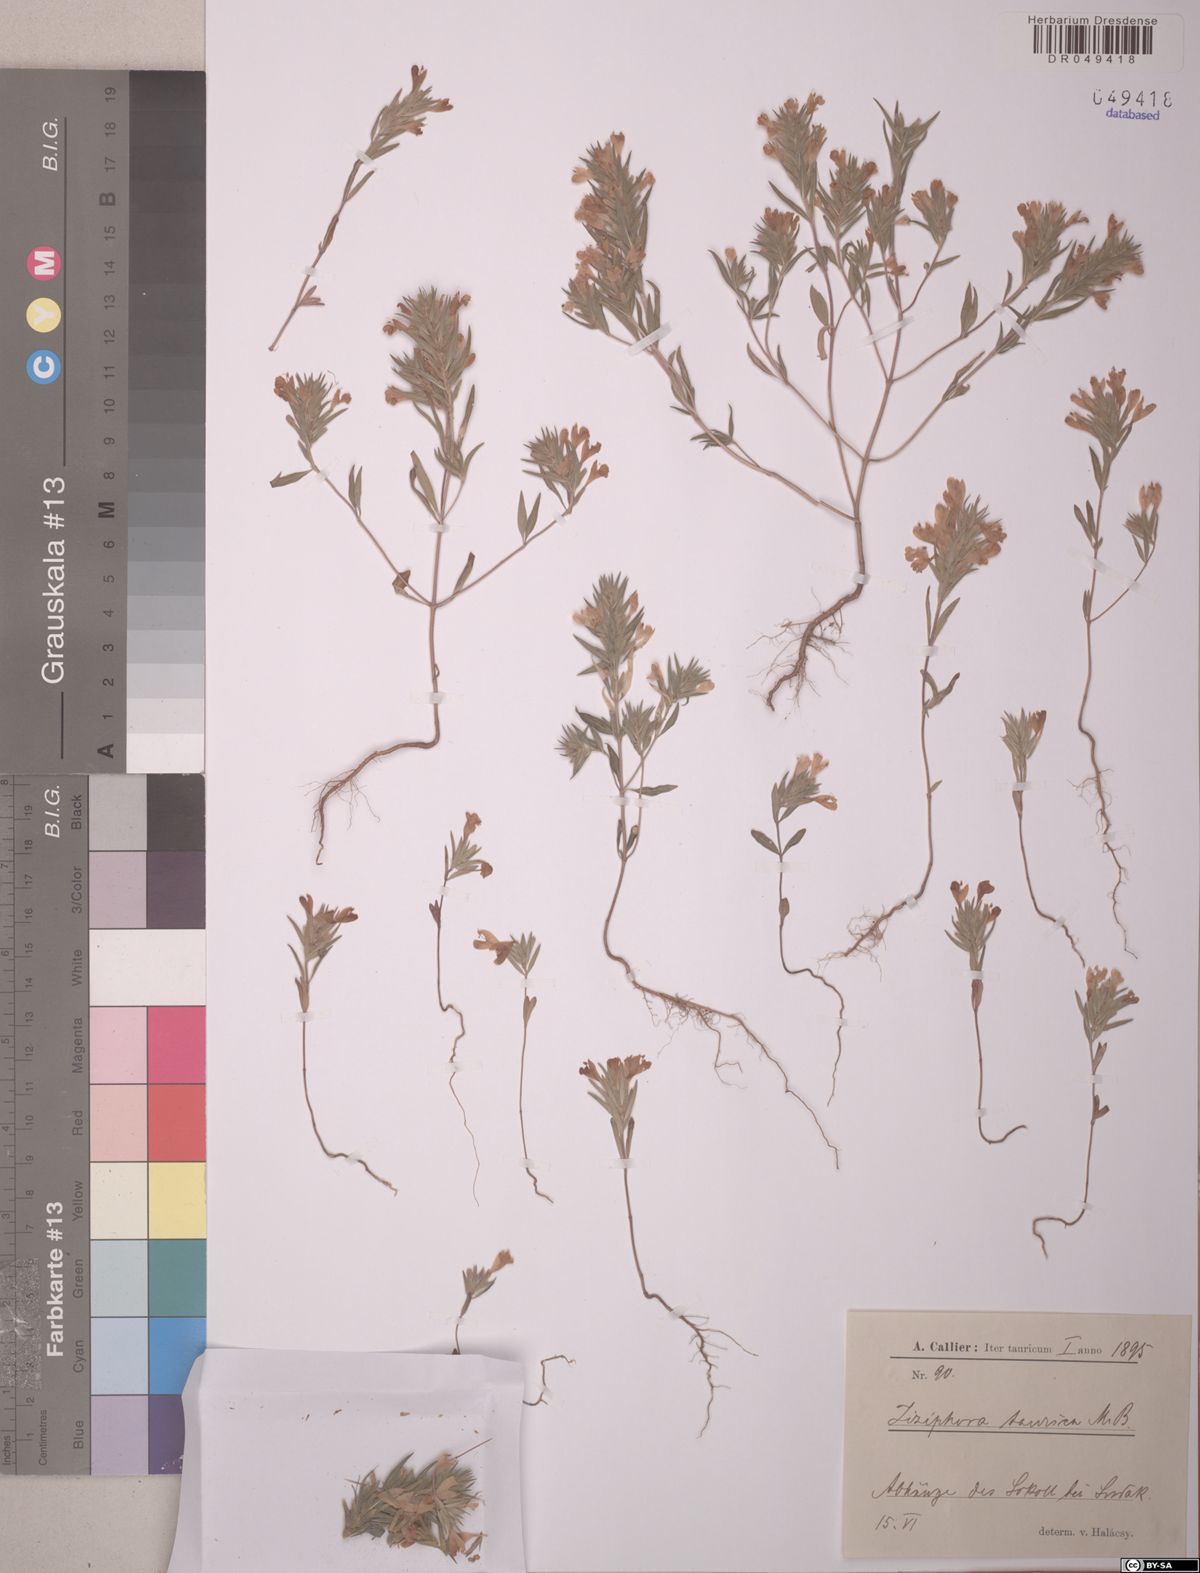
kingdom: Plantae
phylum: Tracheophyta
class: Magnoliopsida
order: Lamiales
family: Lamiaceae
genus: Ziziphora
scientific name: Ziziphora taurica
